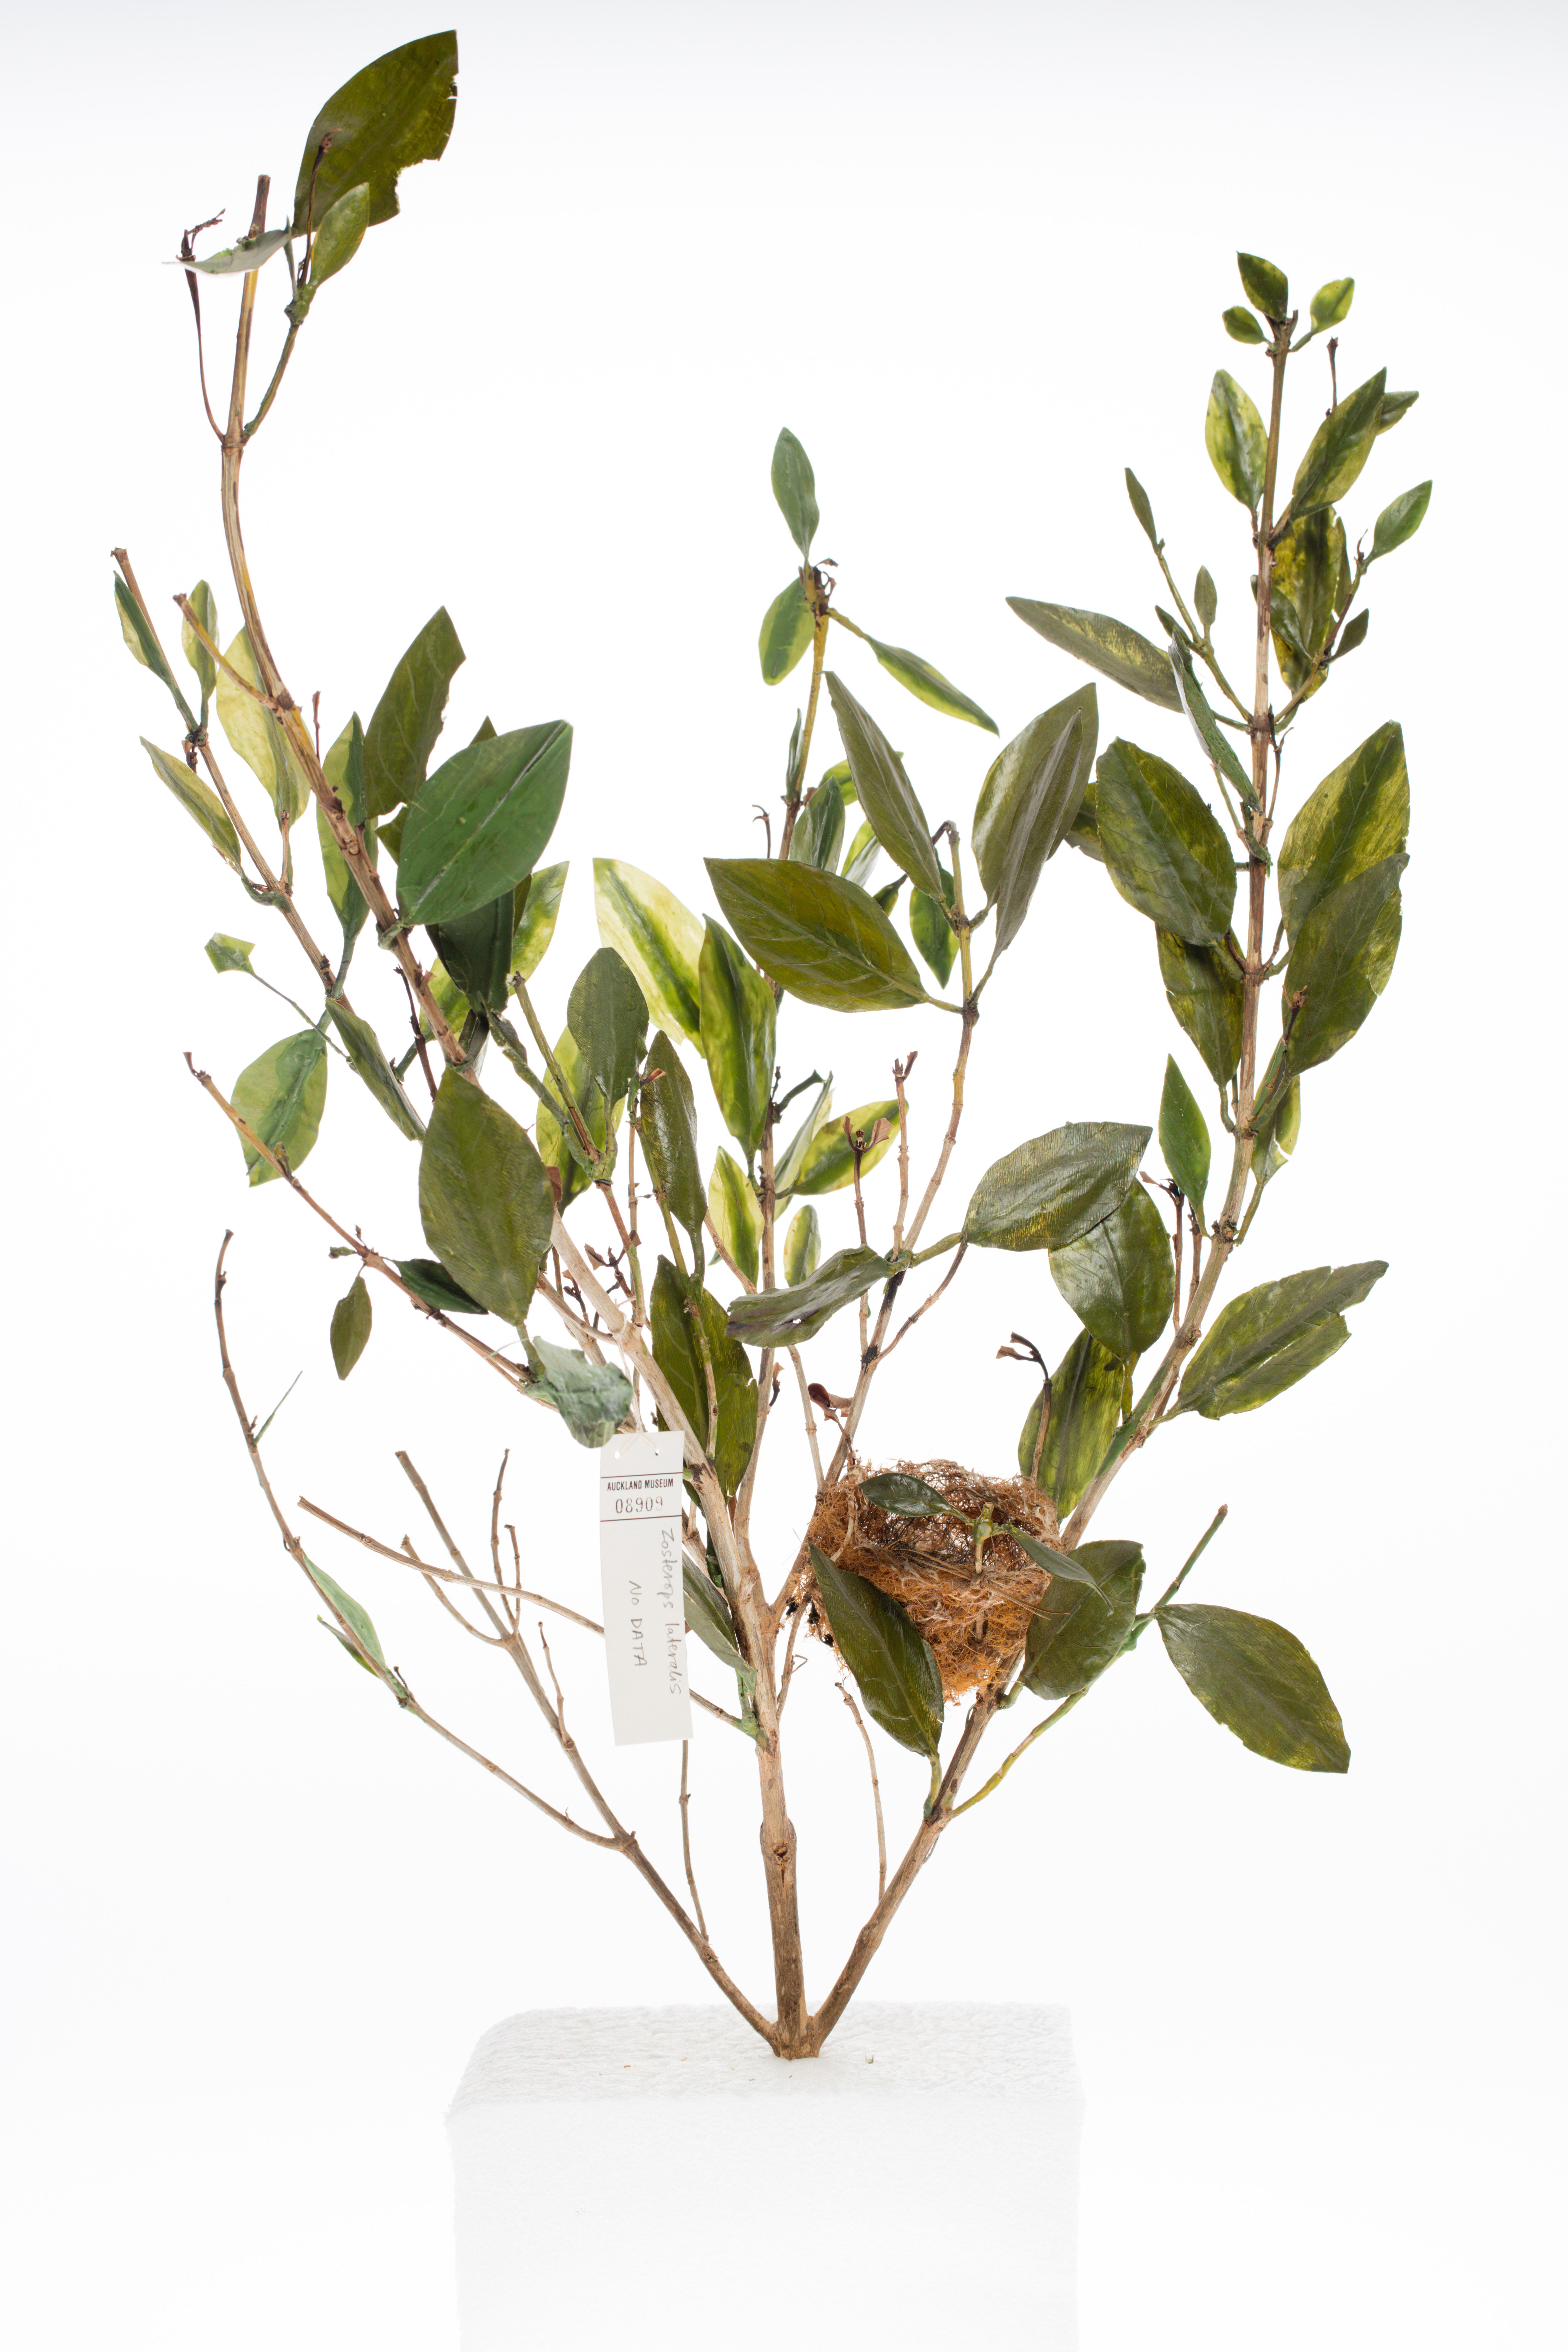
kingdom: Animalia
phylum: Chordata
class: Aves
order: Passeriformes
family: Zosteropidae
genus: Zosterops
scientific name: Zosterops lateralis
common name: Silvereye
